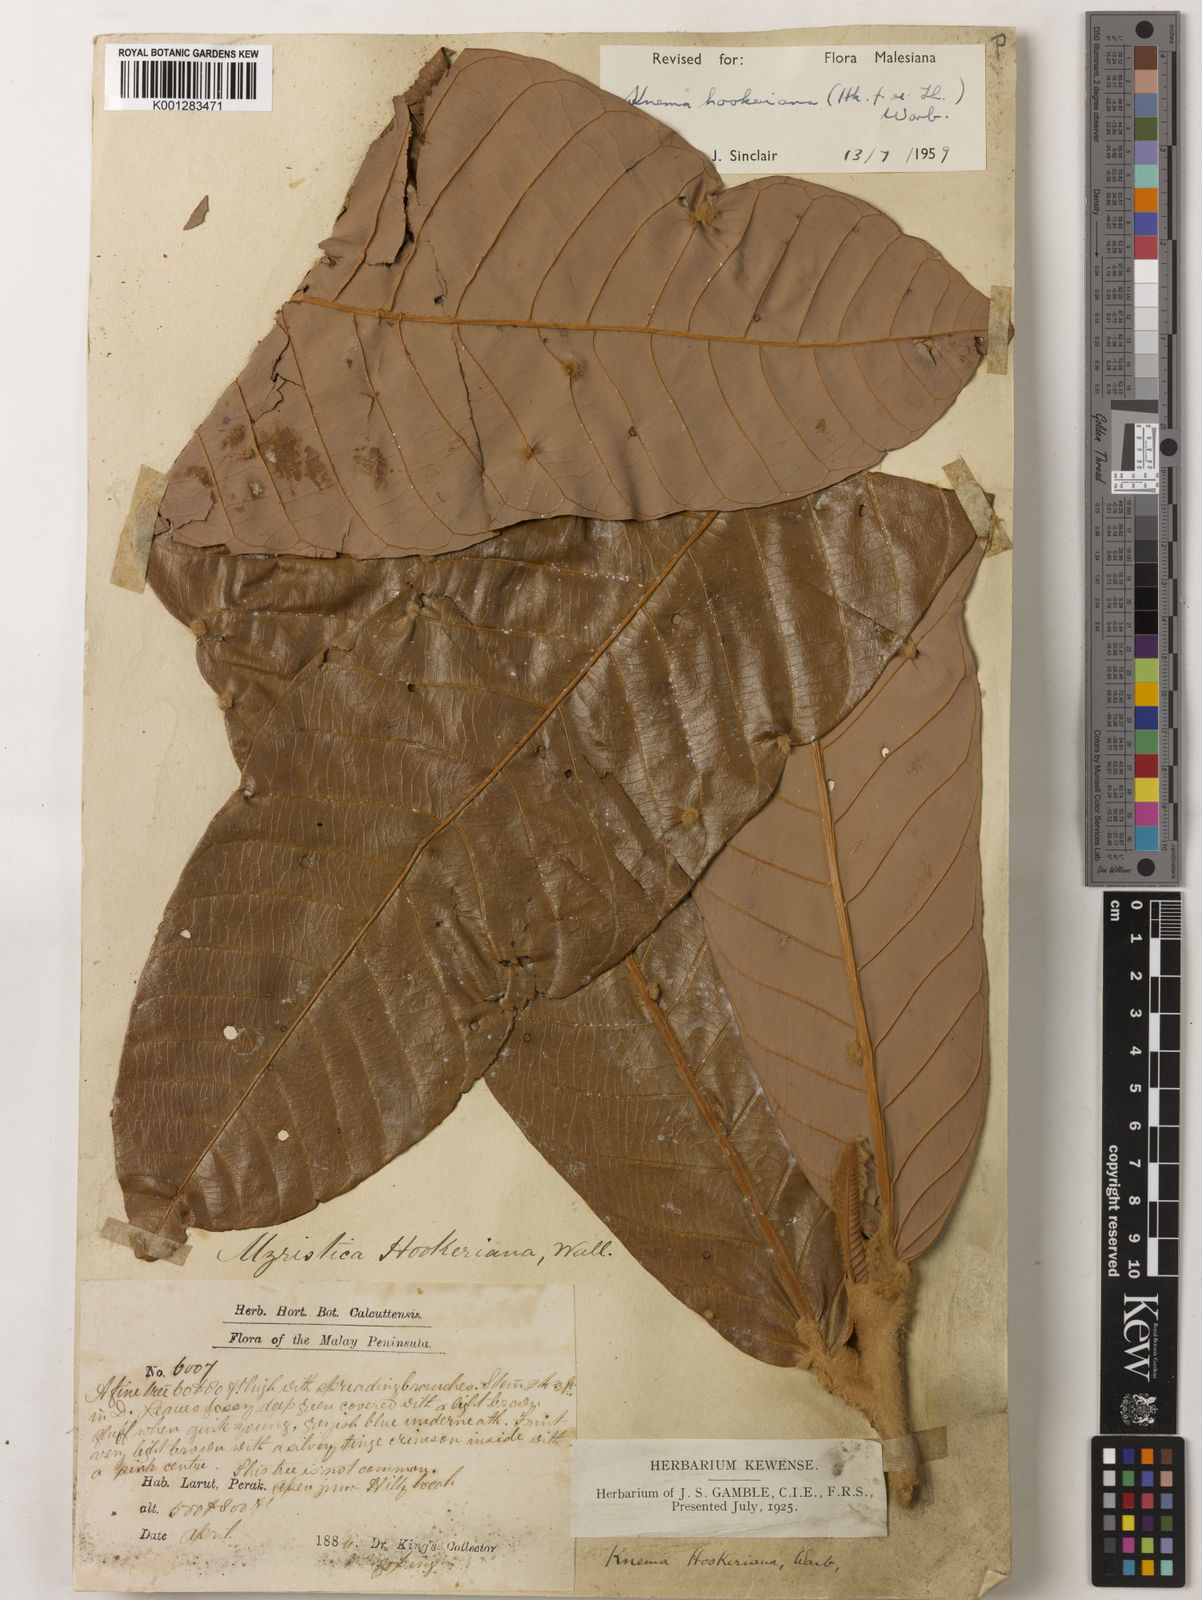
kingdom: Plantae
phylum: Tracheophyta
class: Magnoliopsida
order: Magnoliales
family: Myristicaceae
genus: Knema
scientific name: Knema hookeriana
